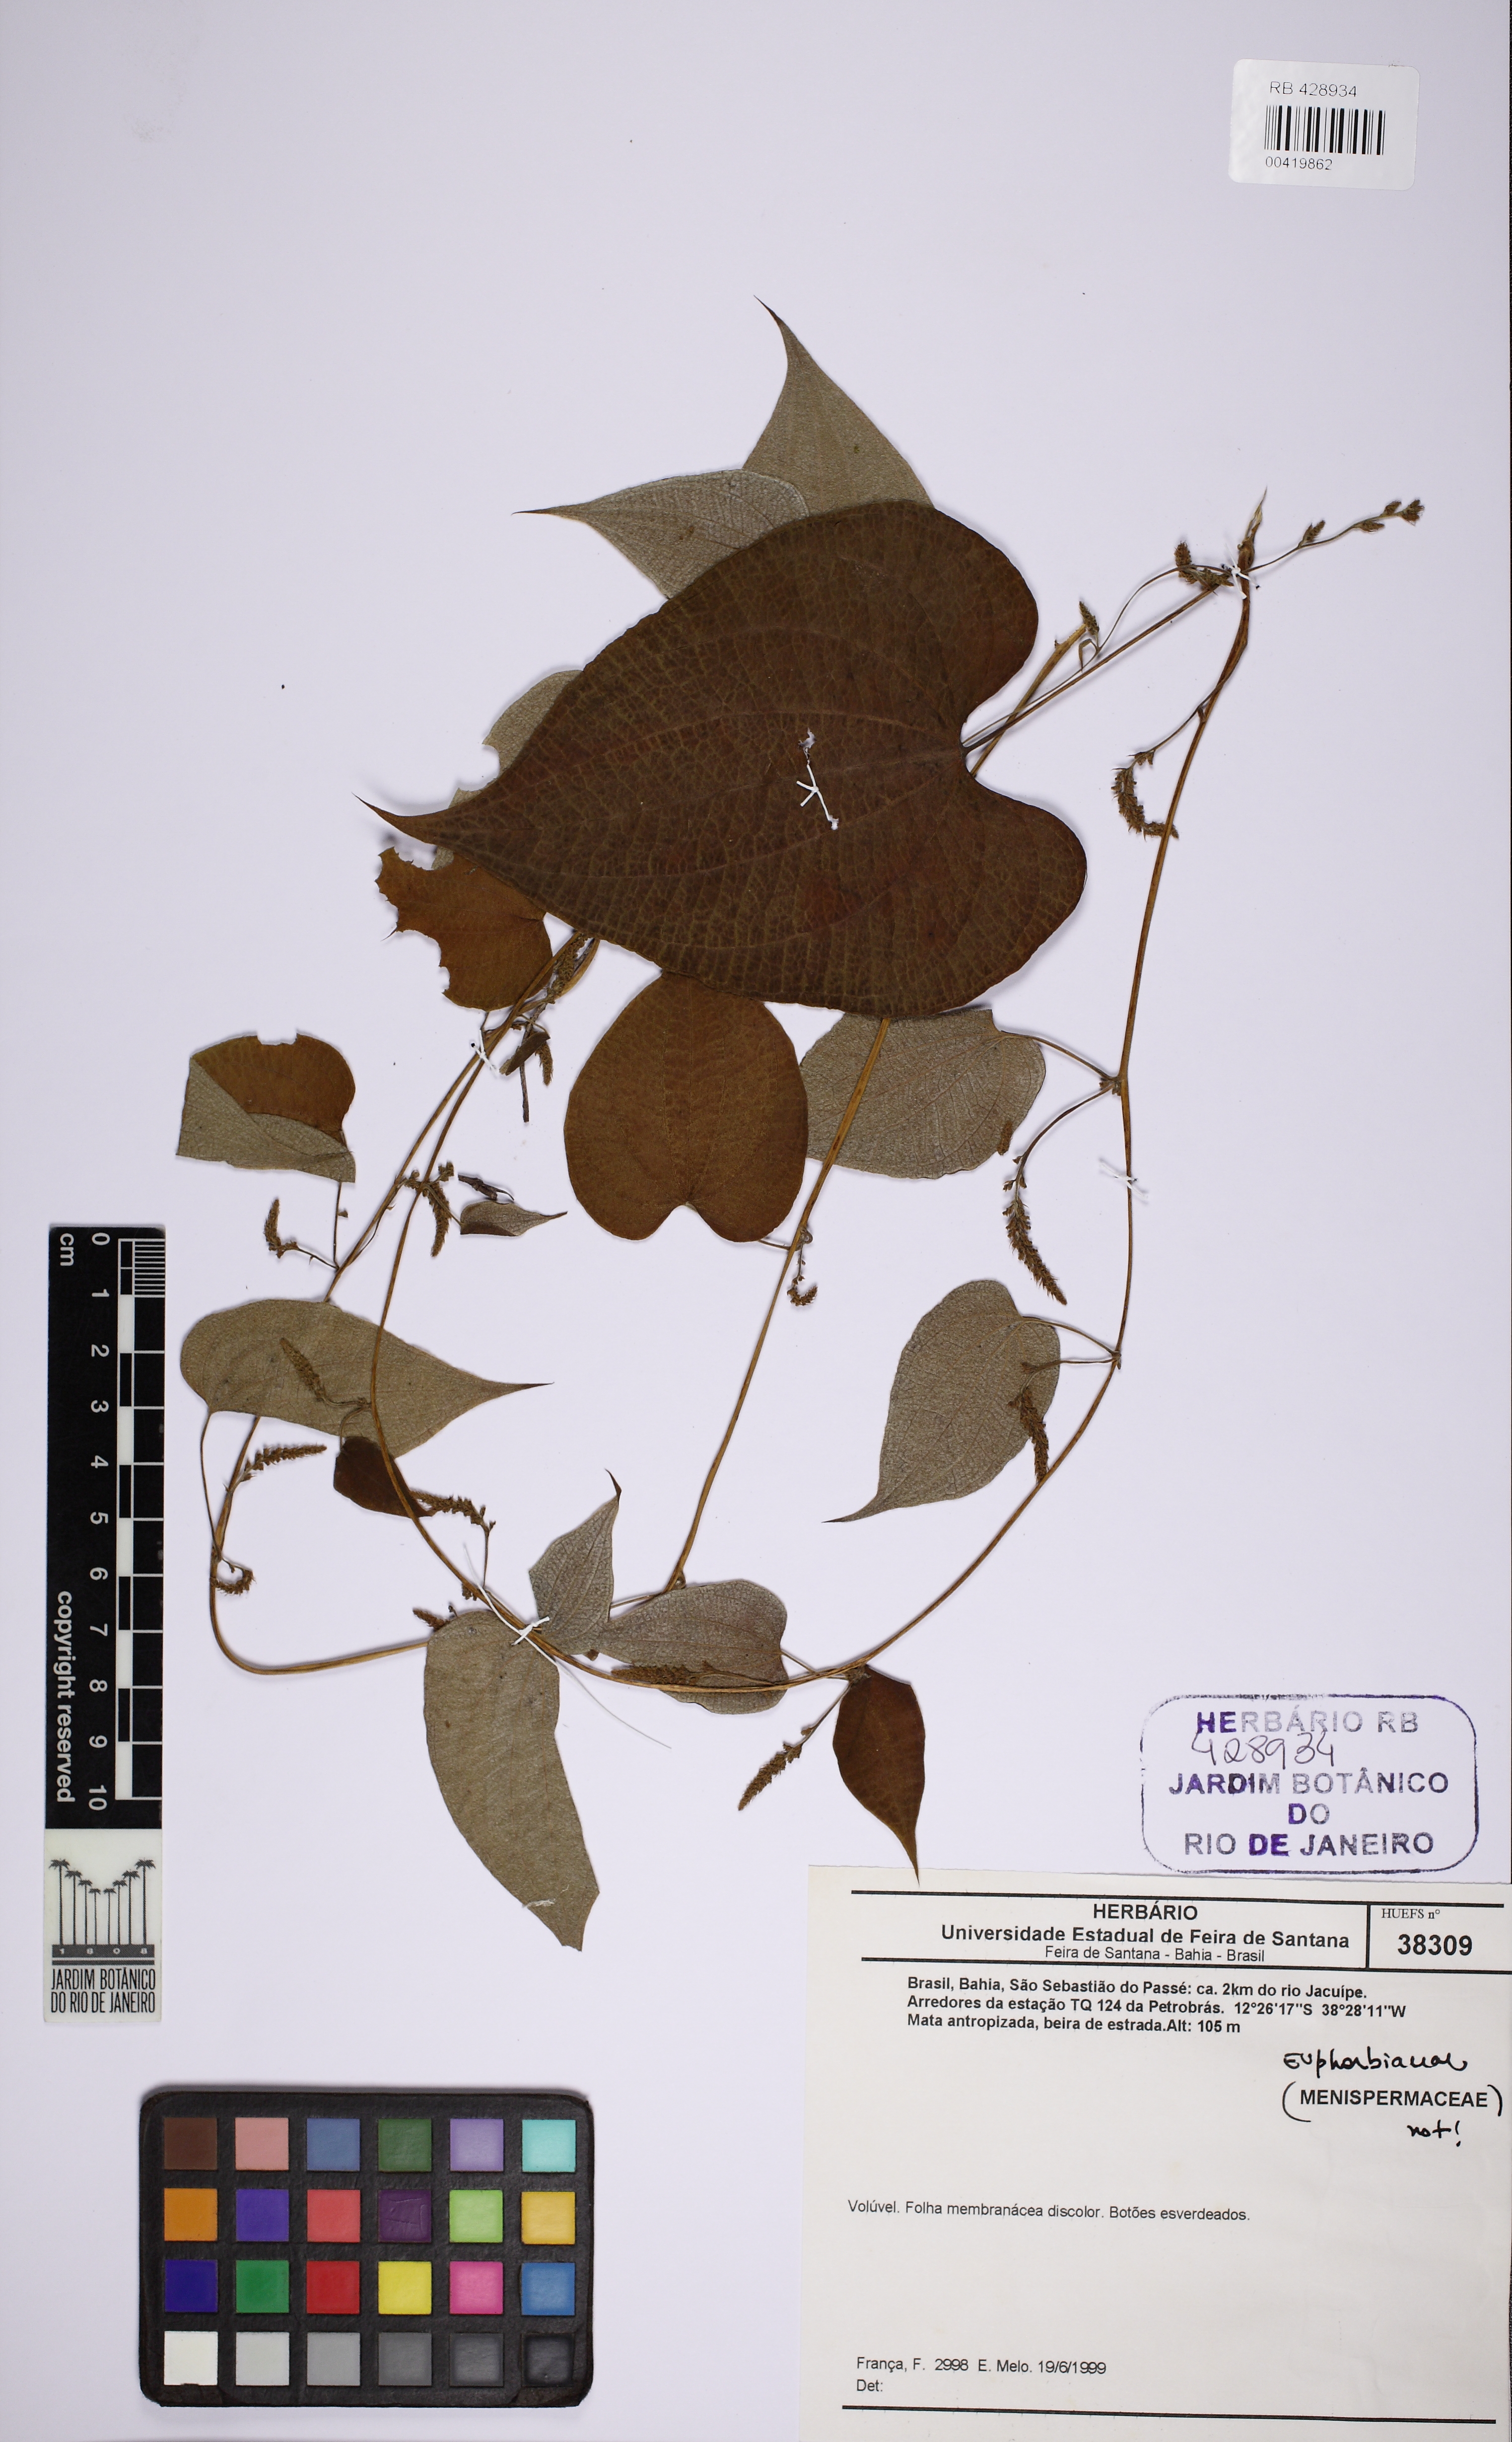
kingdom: Plantae
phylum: Tracheophyta
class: Liliopsida
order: Dioscoreales
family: Dioscoreaceae
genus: Dioscorea
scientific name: Dioscorea stegelmanniana
